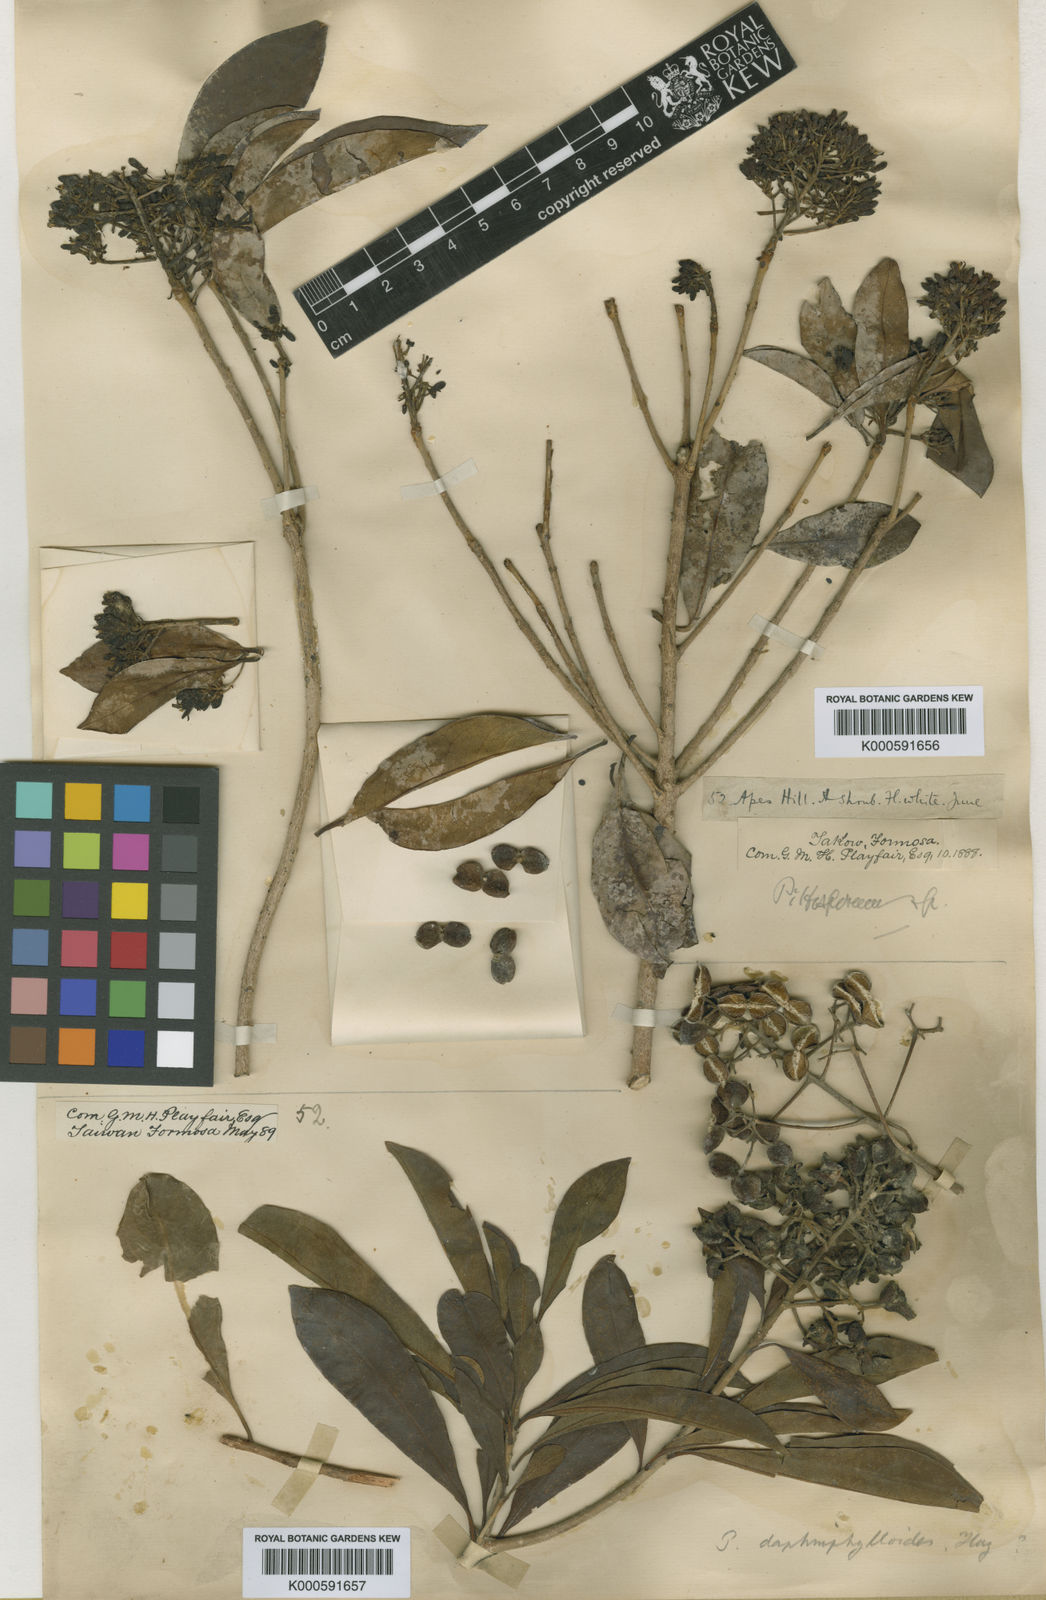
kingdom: Plantae
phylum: Tracheophyta
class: Magnoliopsida
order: Apiales
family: Pittosporaceae
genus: Pittosporum
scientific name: Pittosporum pentandrum
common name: Taiwanese cheesewood
